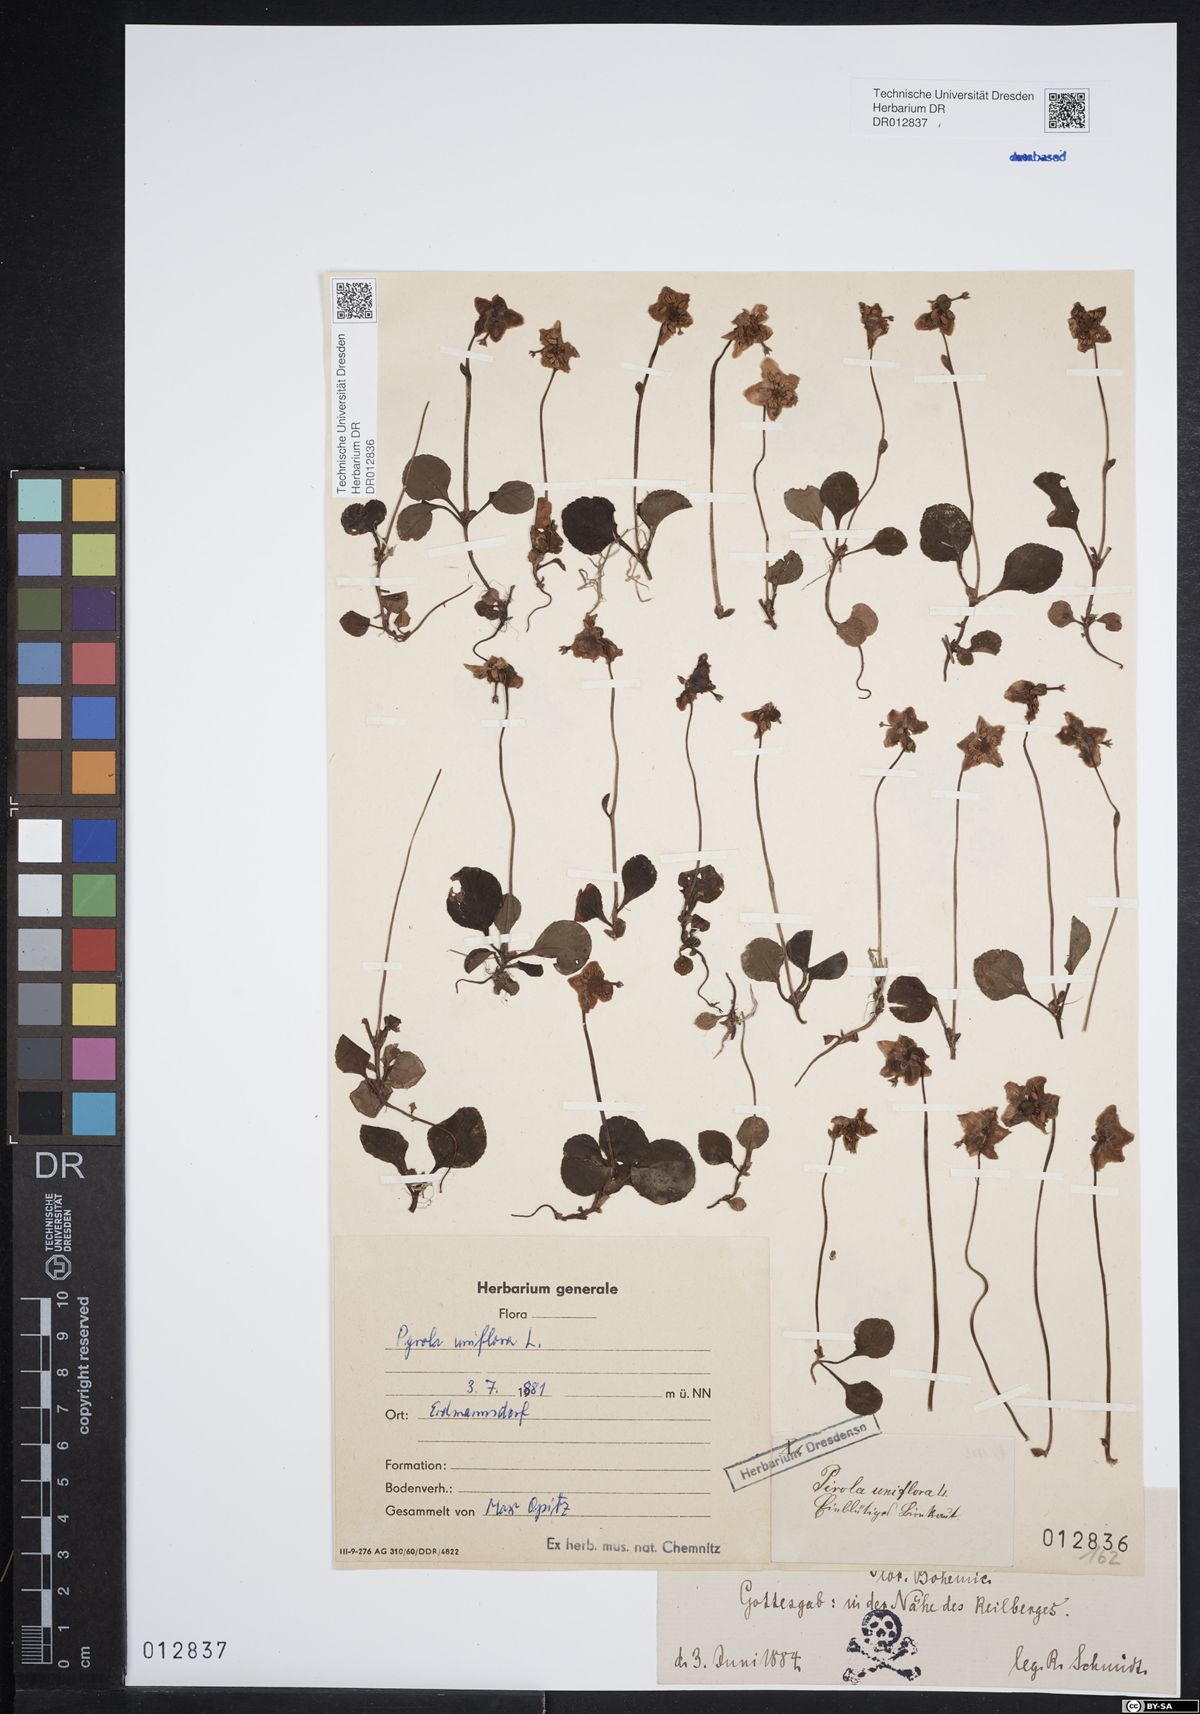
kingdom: Plantae
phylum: Tracheophyta
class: Magnoliopsida
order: Ericales
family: Ericaceae
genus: Moneses
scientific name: Moneses uniflora
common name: One-flowered wintergreen
